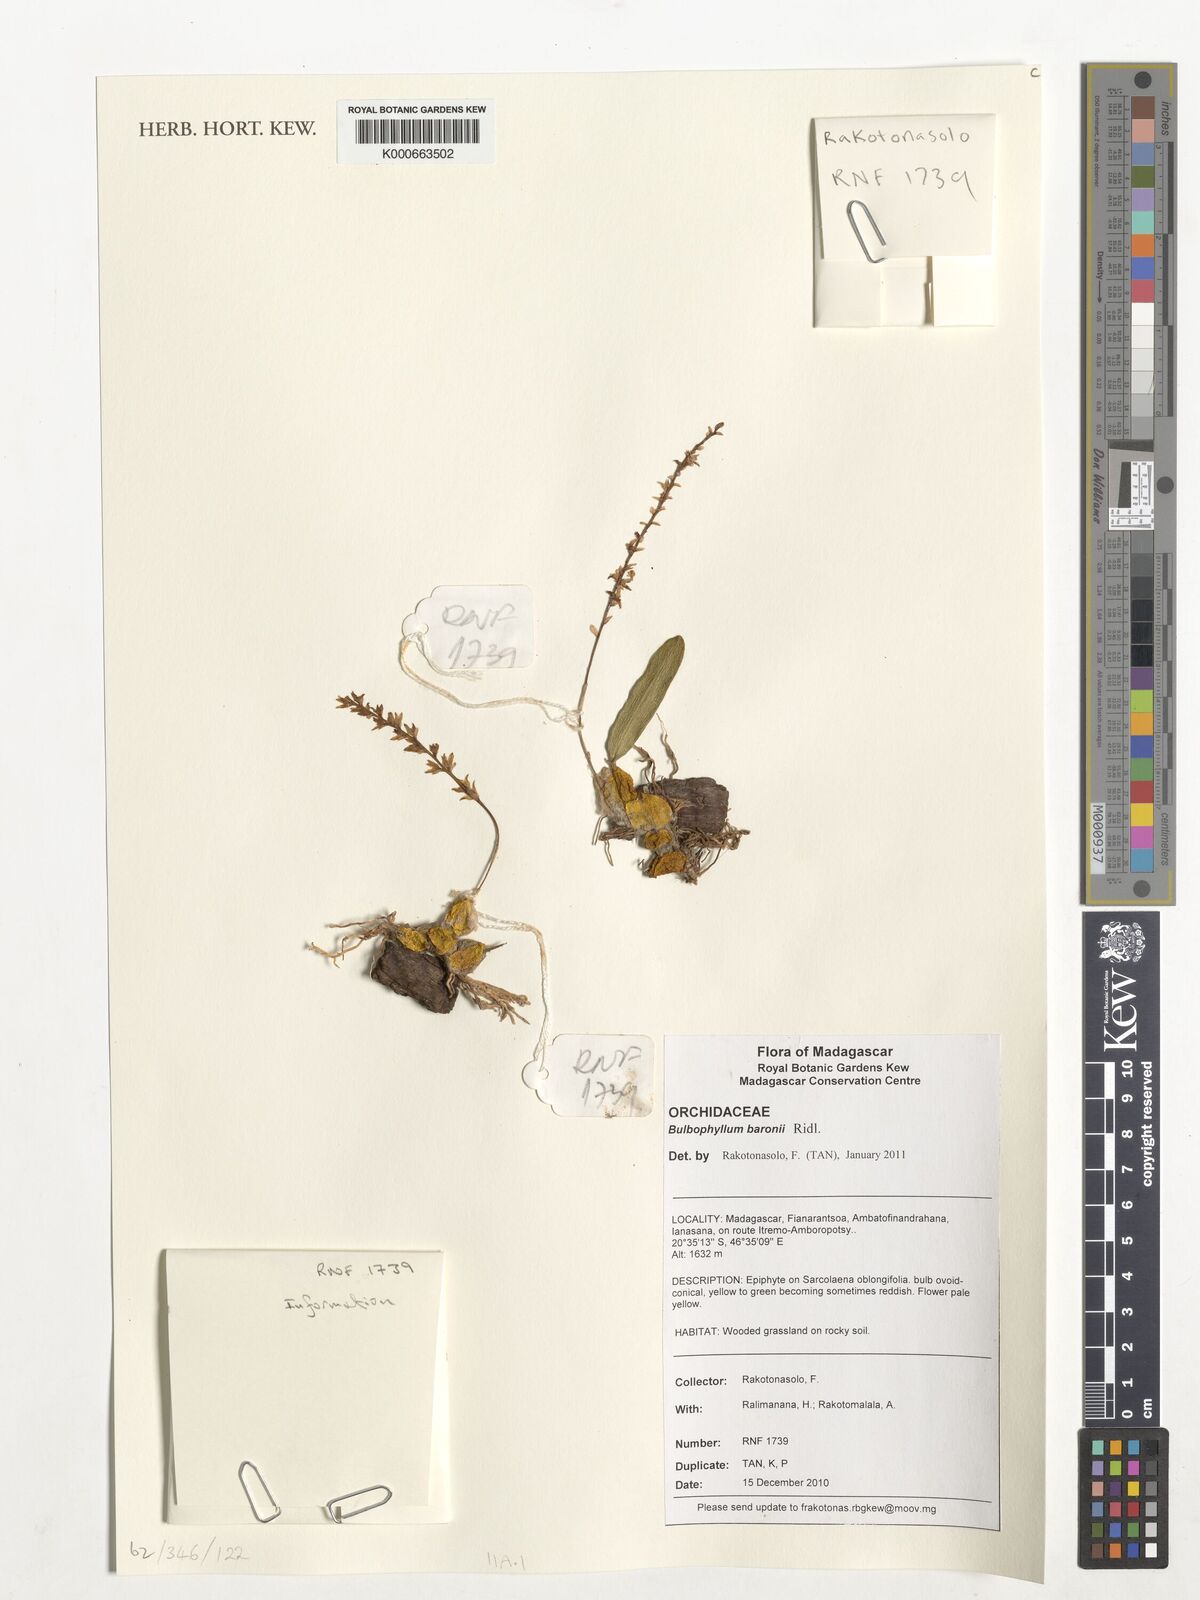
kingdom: Plantae
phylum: Tracheophyta
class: Liliopsida
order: Asparagales
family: Orchidaceae
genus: Bulbophyllum
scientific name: Bulbophyllum baronii
